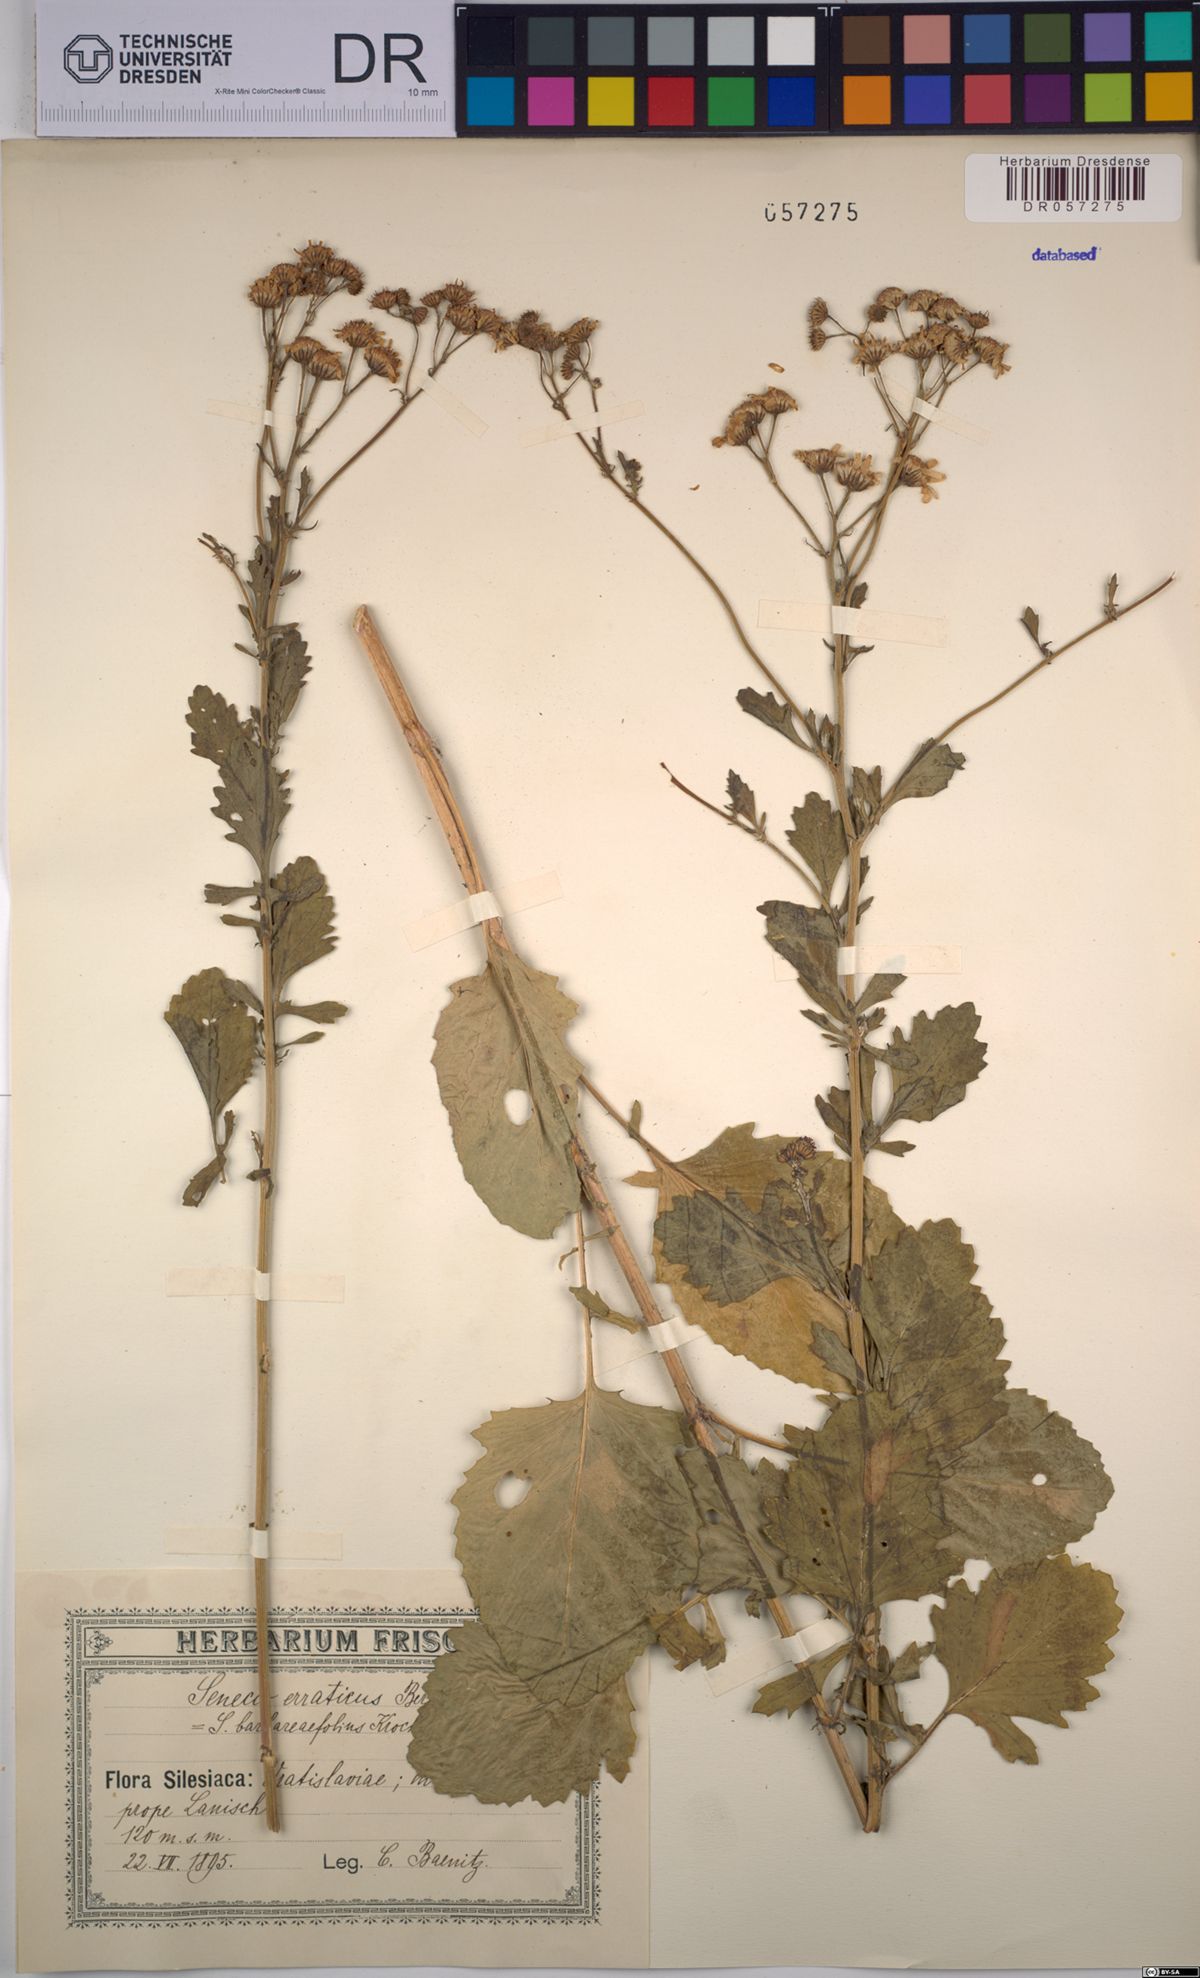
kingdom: Plantae
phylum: Tracheophyta
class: Magnoliopsida
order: Asterales
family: Asteraceae
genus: Jacobaea
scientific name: Jacobaea erratica
